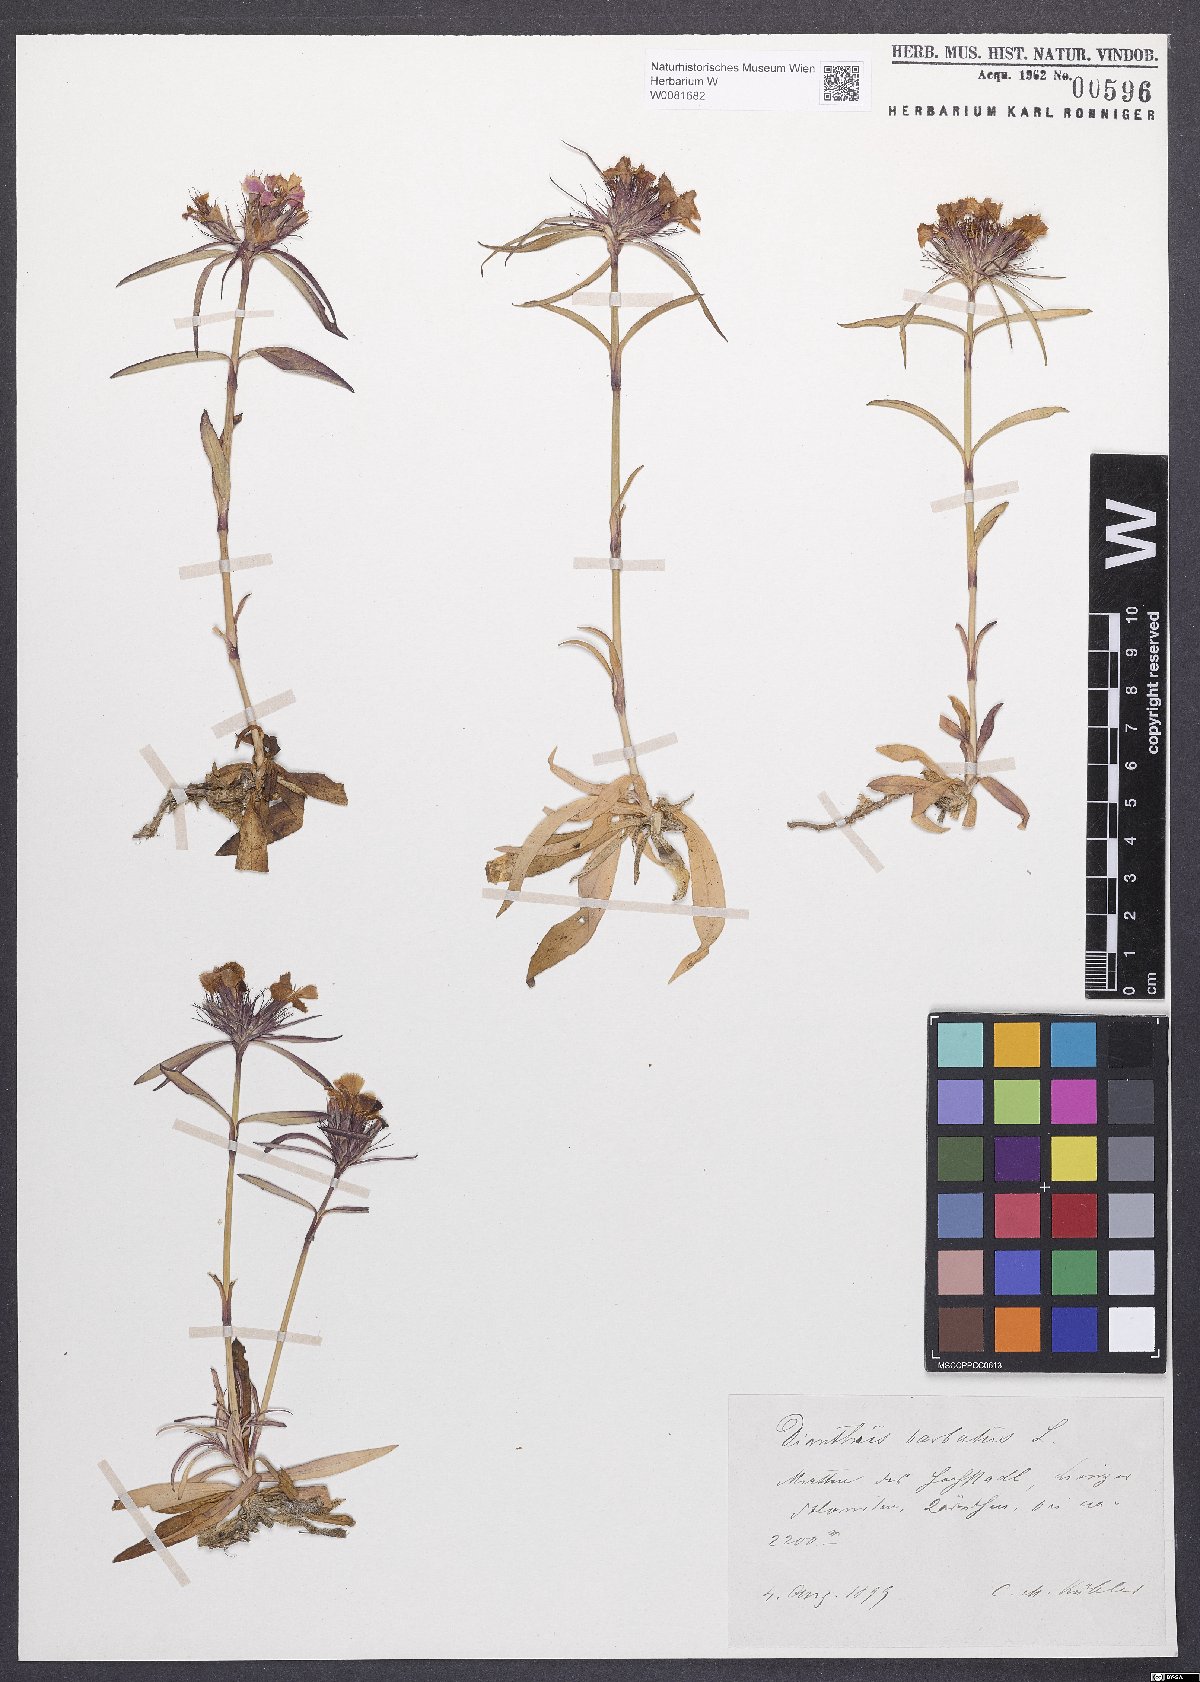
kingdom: Plantae
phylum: Tracheophyta
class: Magnoliopsida
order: Caryophyllales
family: Caryophyllaceae
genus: Dianthus
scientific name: Dianthus barbatus
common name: Sweet-william
